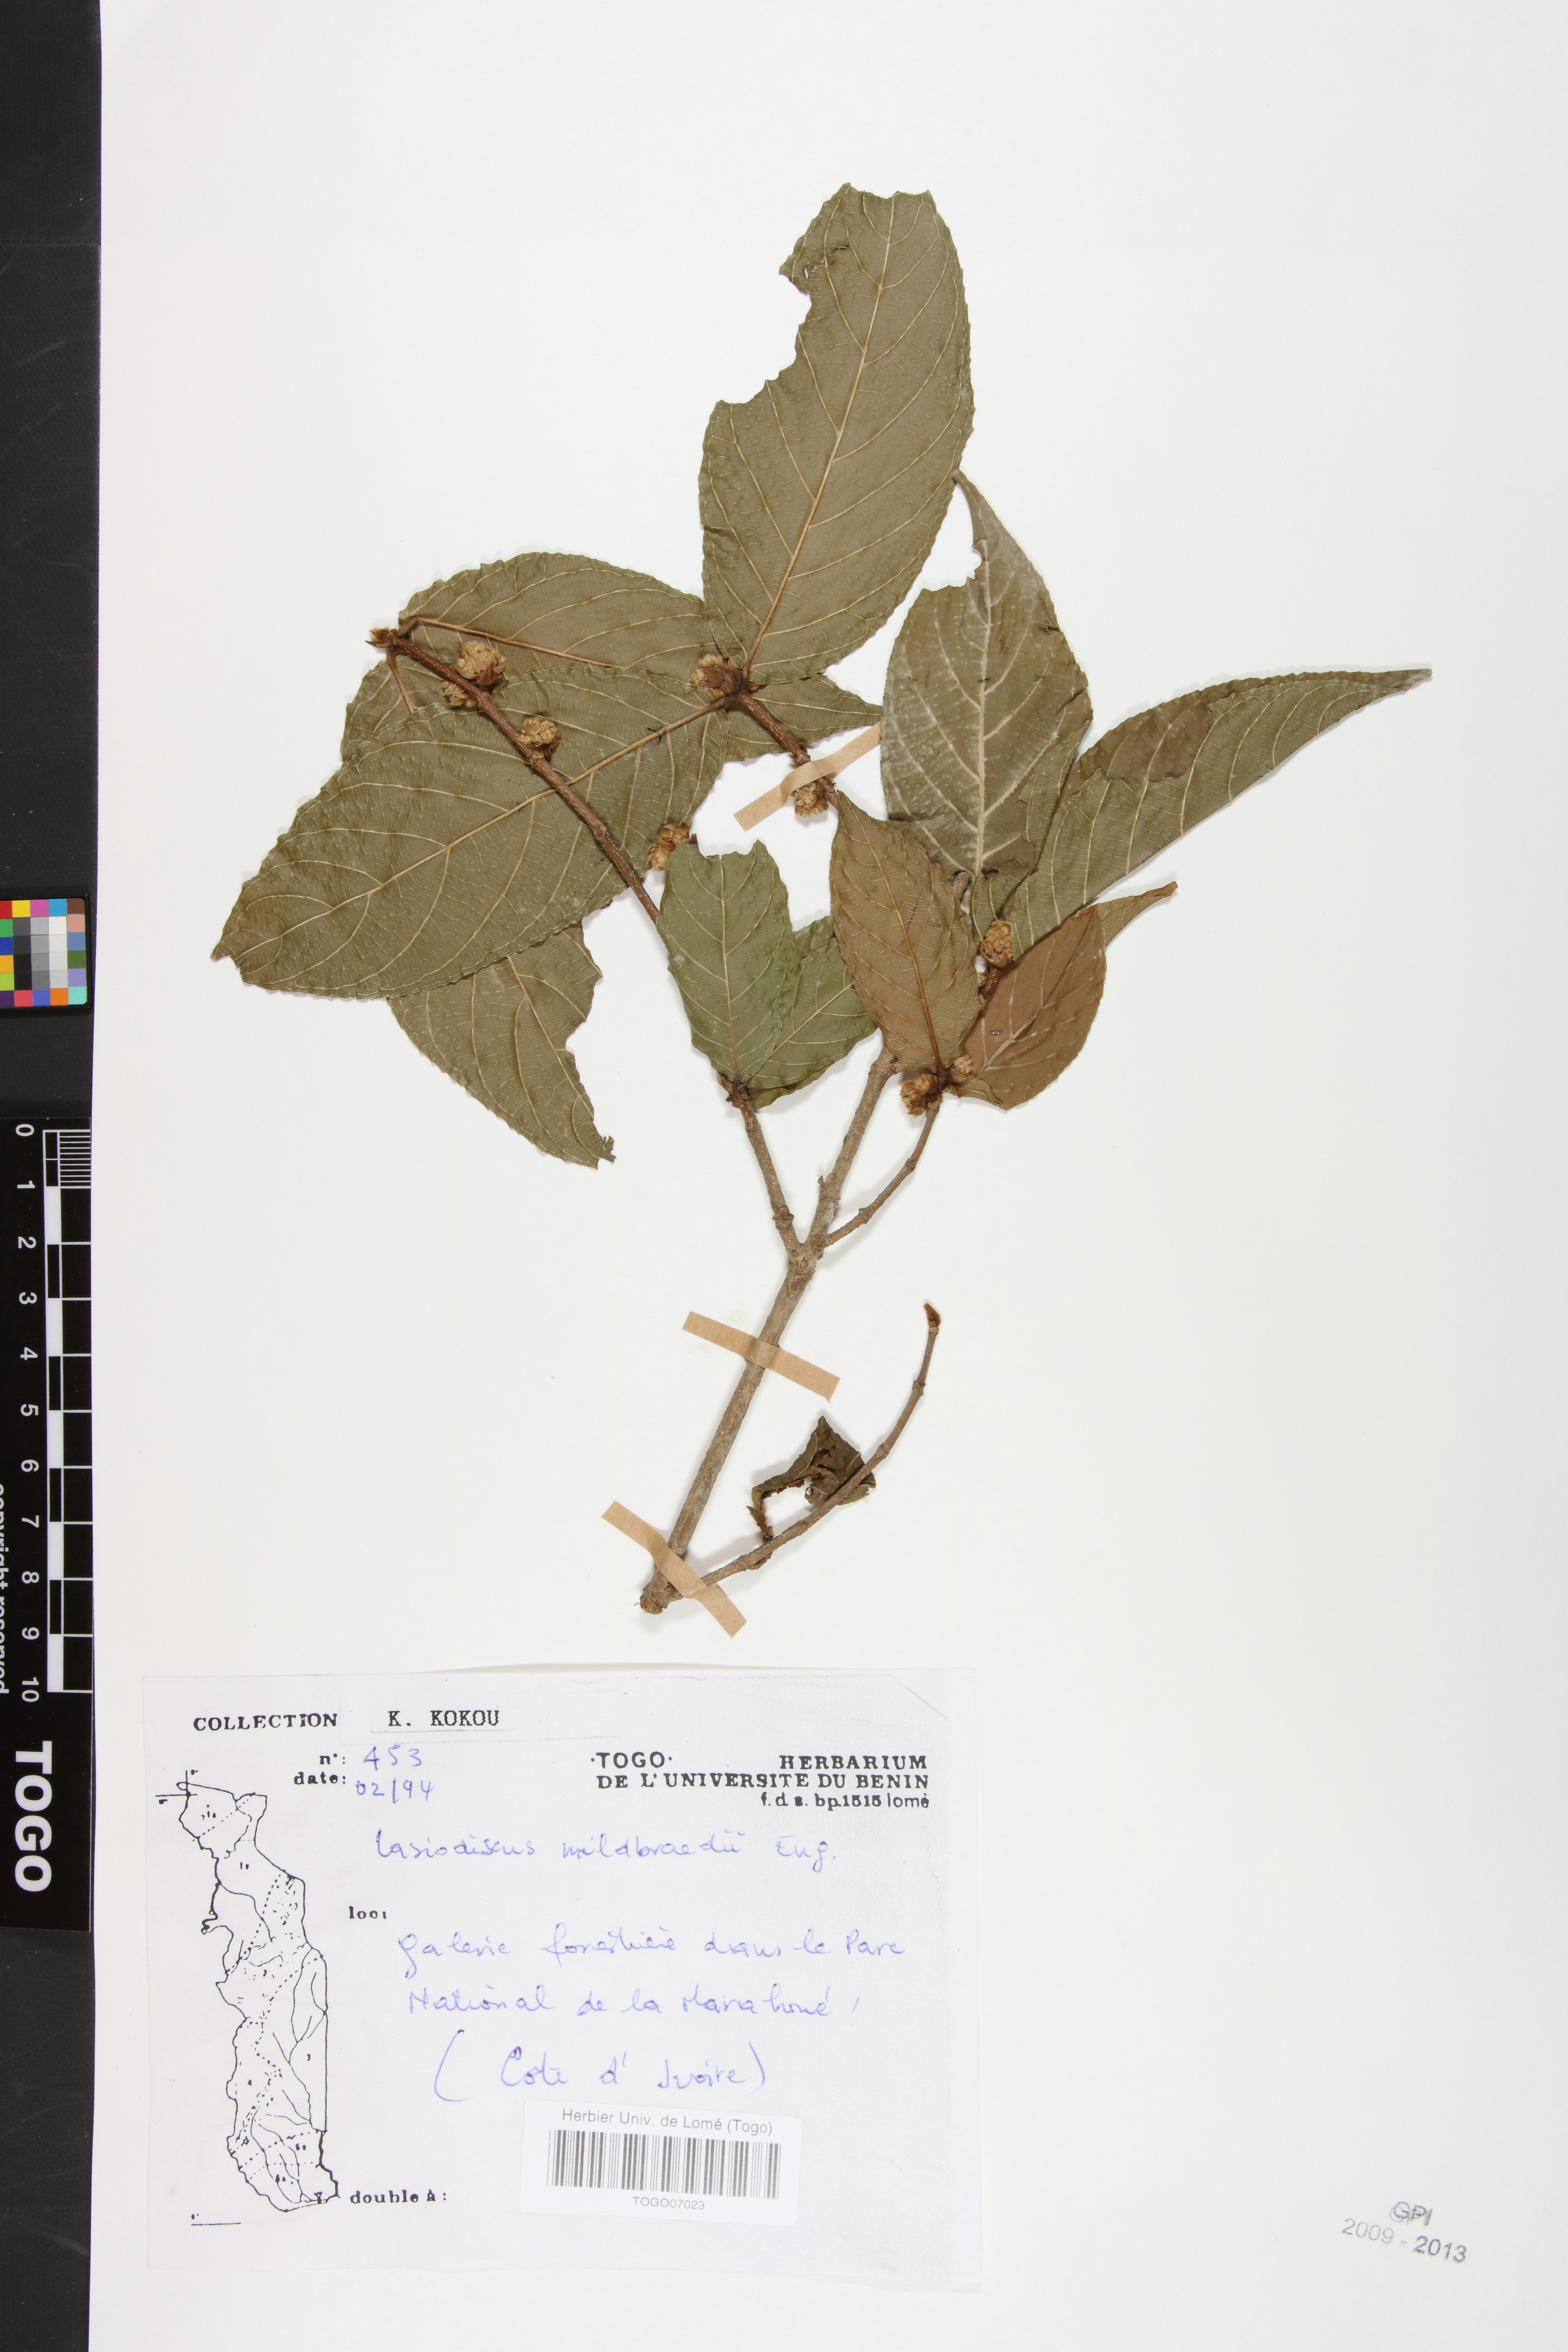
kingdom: Plantae
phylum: Tracheophyta
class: Magnoliopsida
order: Rosales
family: Rhamnaceae
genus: Lasiodiscus
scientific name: Lasiodiscus fasciculiflorus
